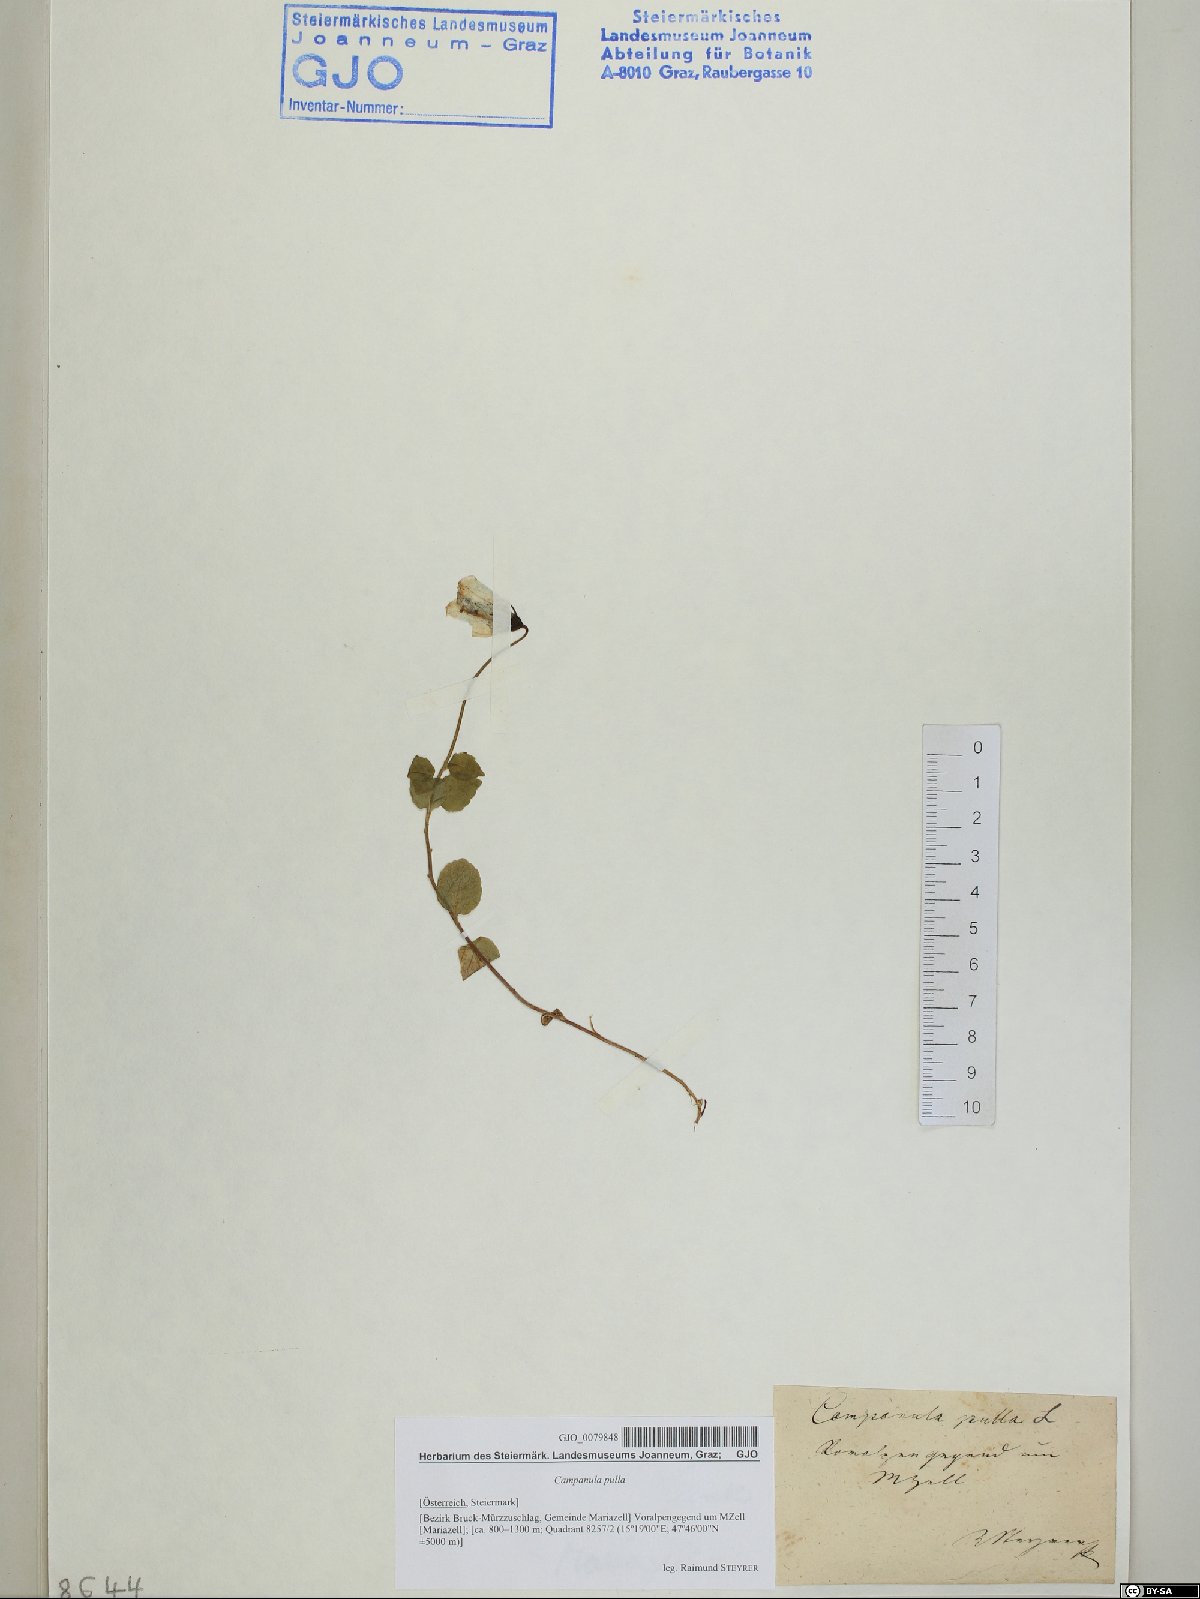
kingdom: Plantae
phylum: Tracheophyta
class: Magnoliopsida
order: Asterales
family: Campanulaceae
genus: Campanula
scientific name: Campanula pulla
